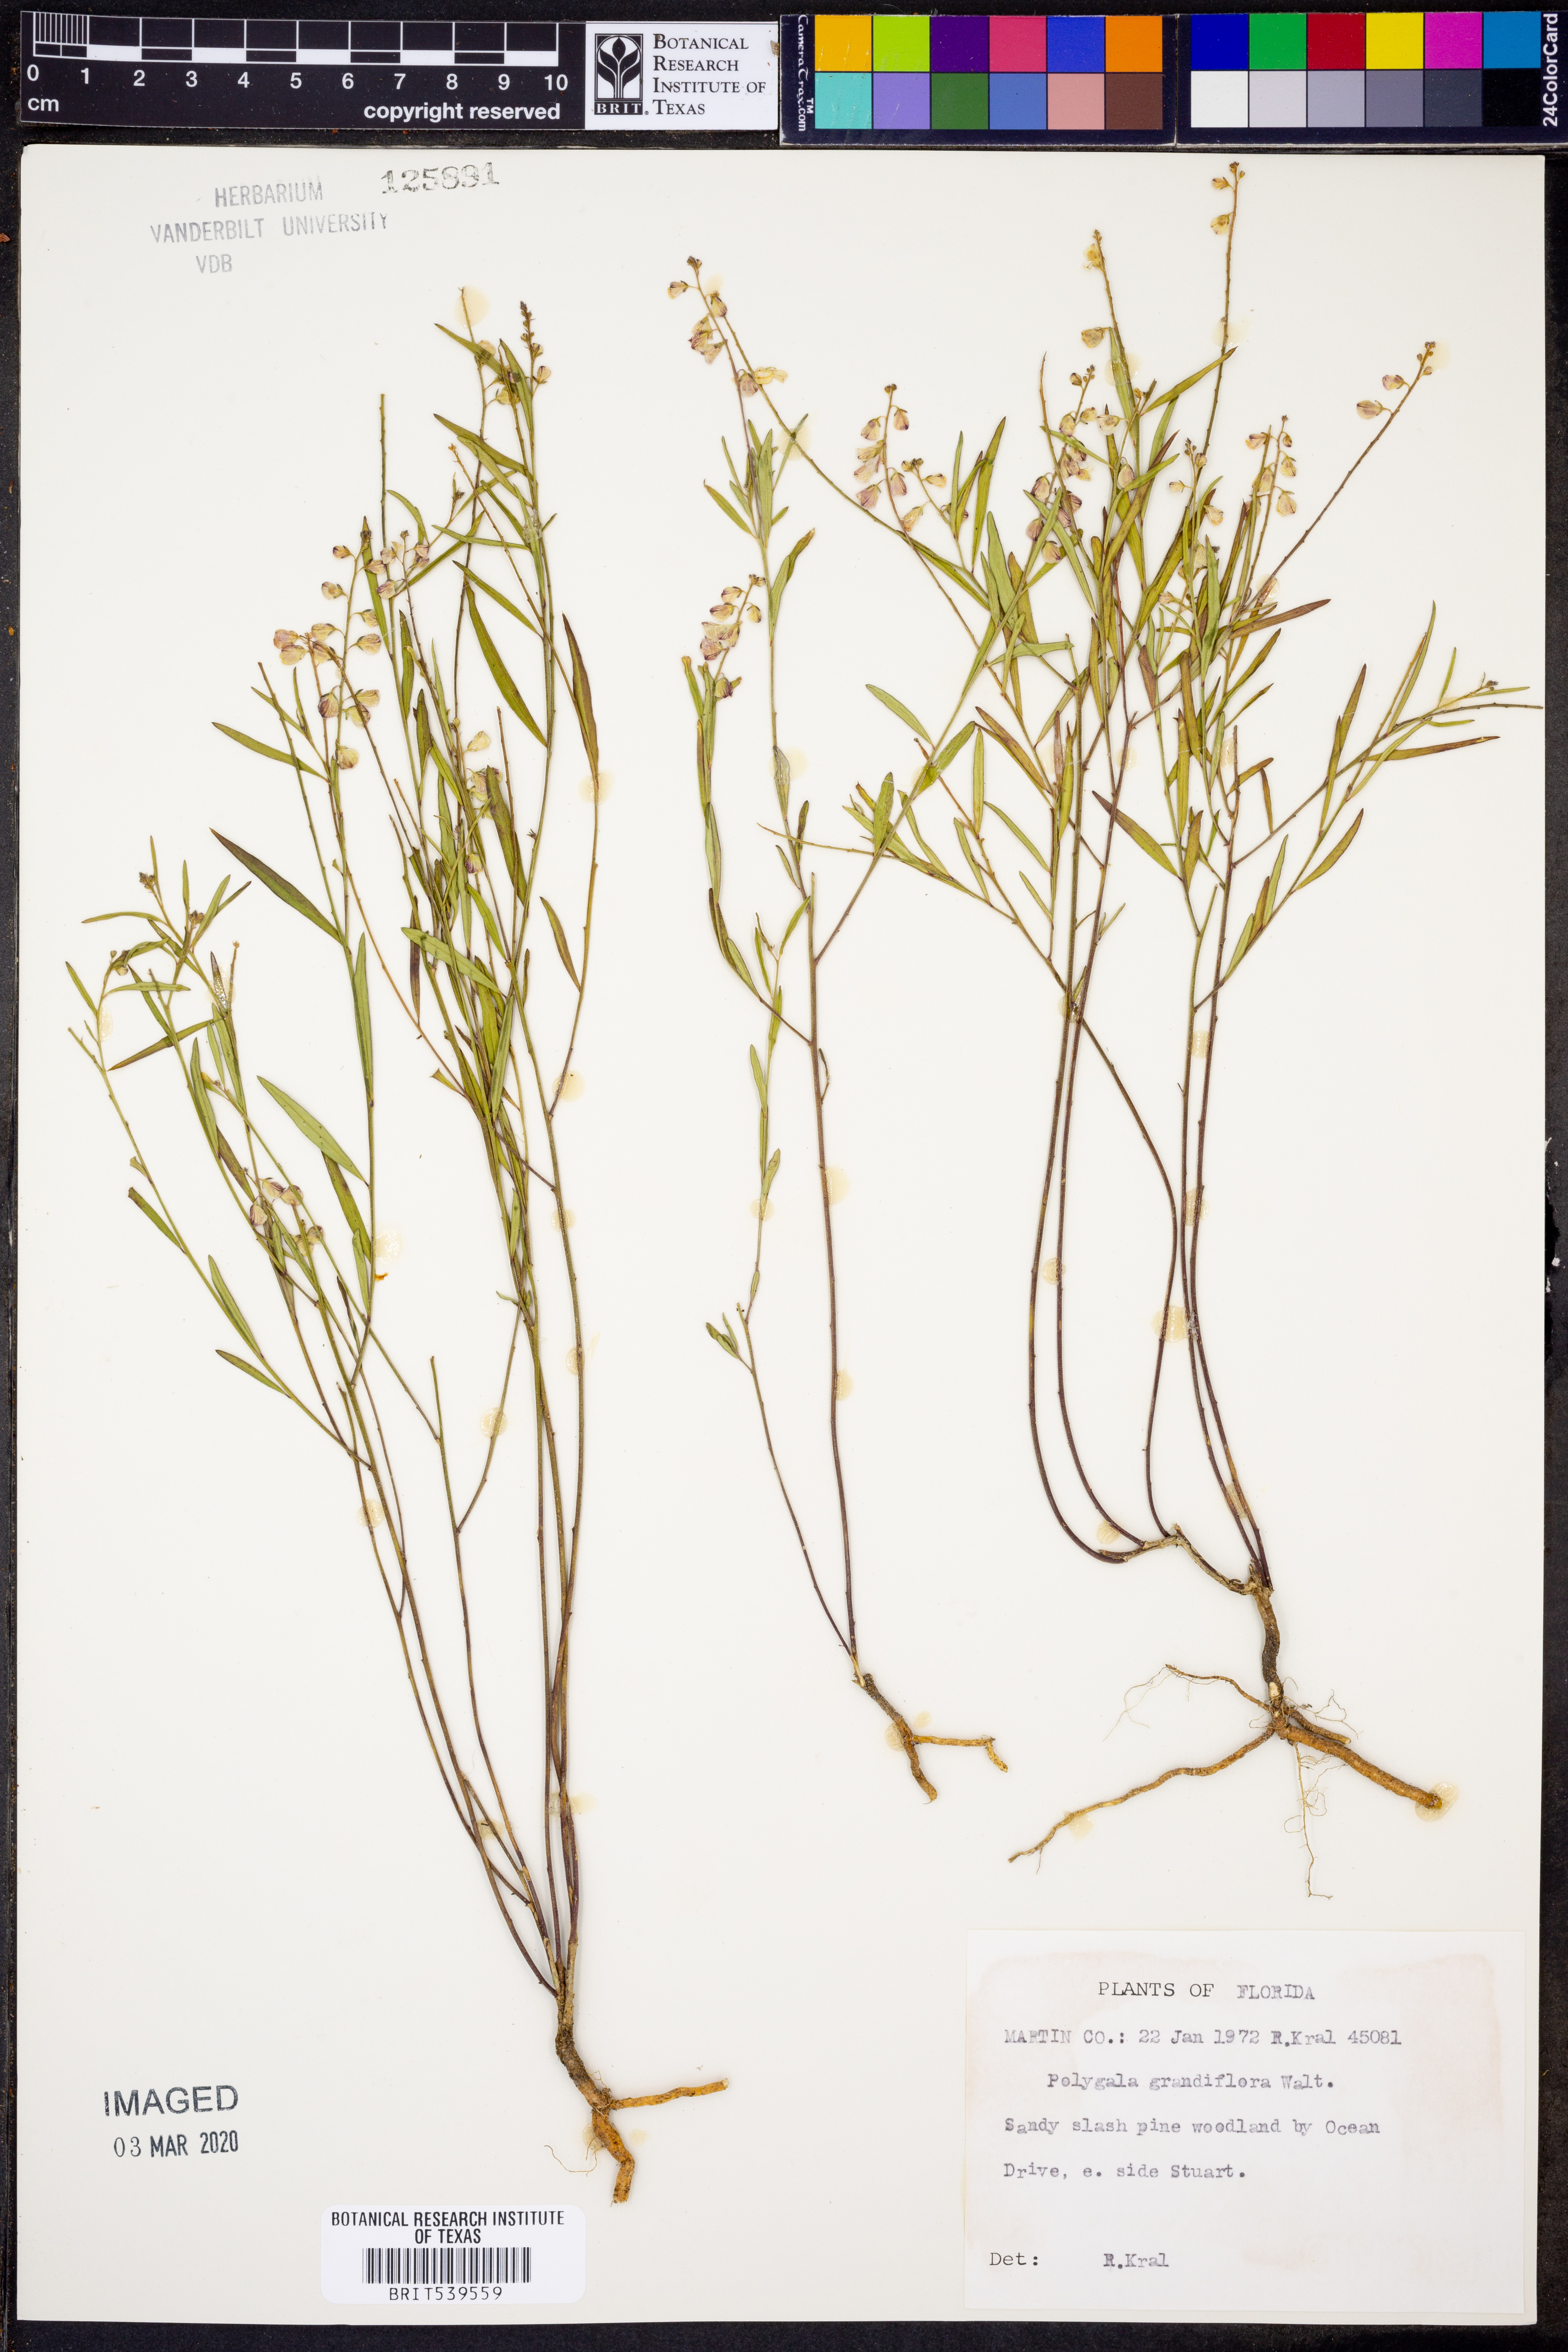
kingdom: Plantae
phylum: Tracheophyta
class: Magnoliopsida
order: Fabales
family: Polygalaceae
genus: Asemeia
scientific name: Asemeia grandiflora
